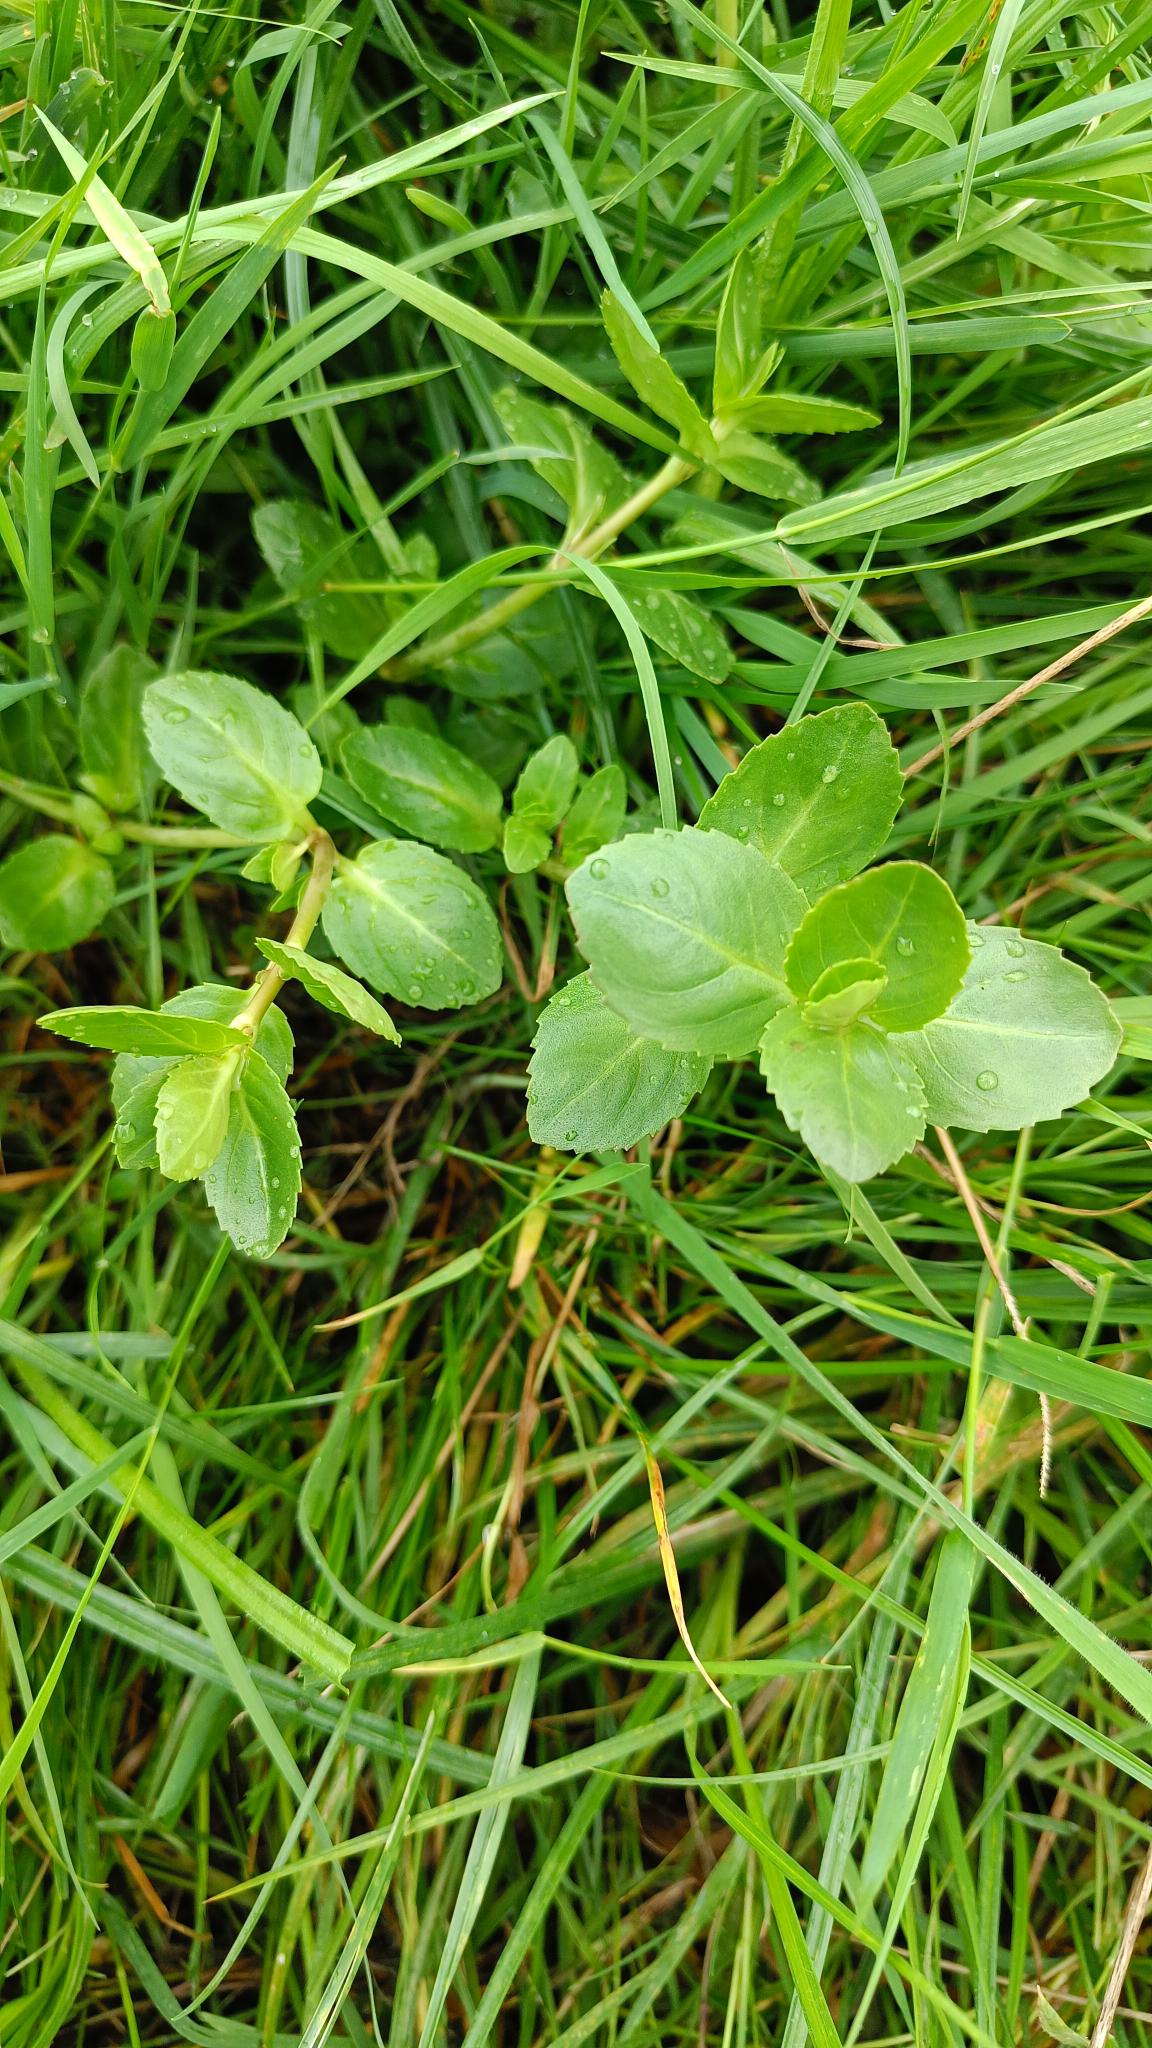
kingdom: Plantae
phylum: Tracheophyta
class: Magnoliopsida
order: Lamiales
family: Plantaginaceae
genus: Veronica
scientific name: Veronica beccabunga
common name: Tykbladet ærenpris
